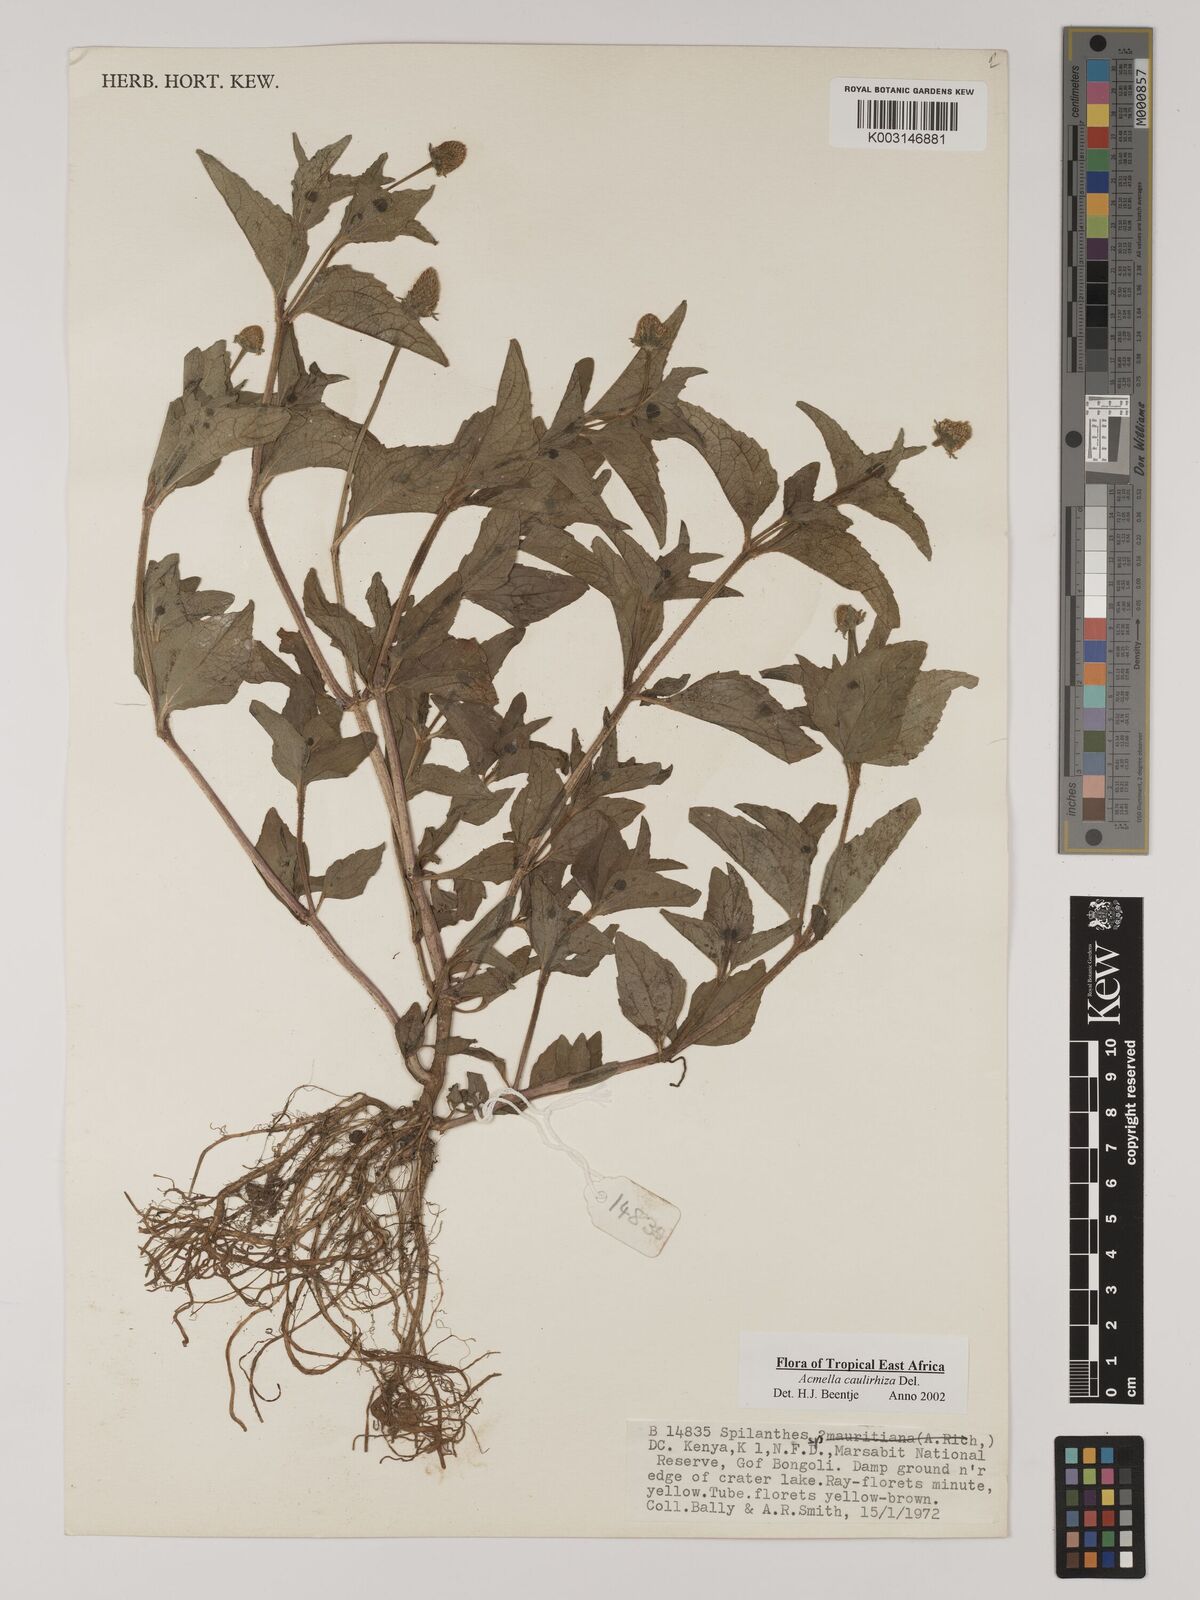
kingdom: Plantae
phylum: Tracheophyta
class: Magnoliopsida
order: Asterales
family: Asteraceae
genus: Acmella
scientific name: Acmella caulirhiza
